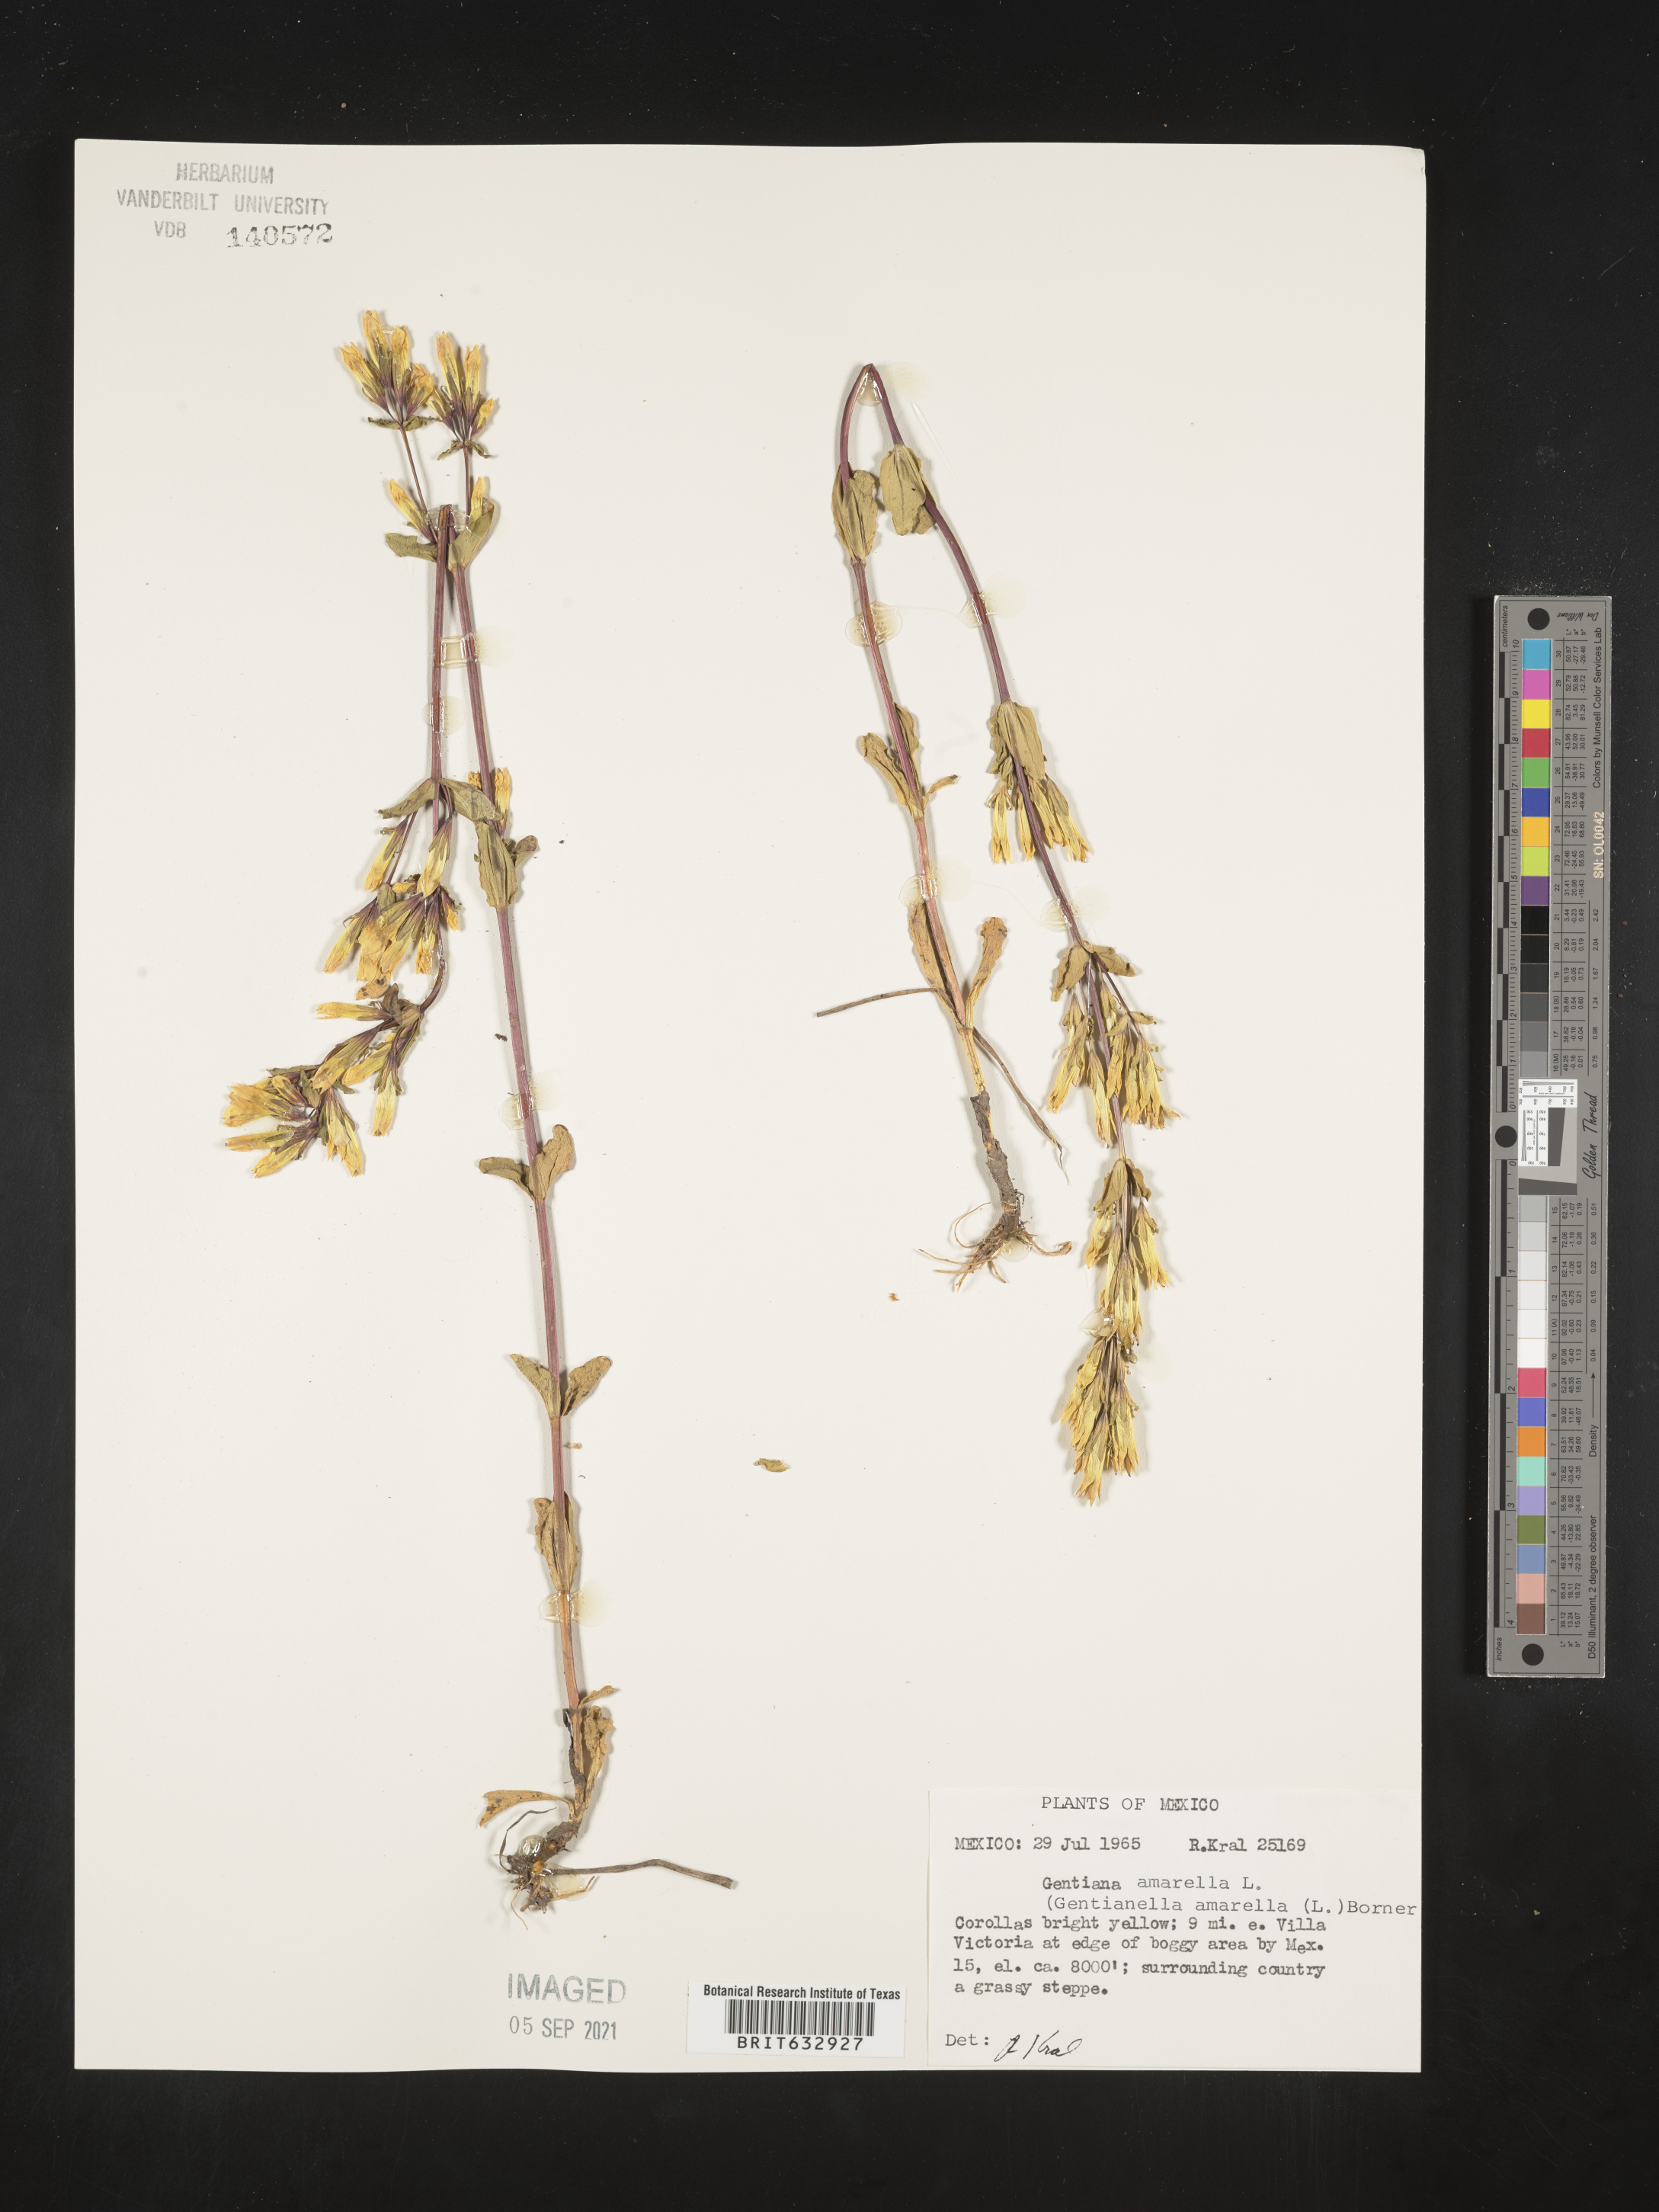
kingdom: Plantae
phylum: Tracheophyta
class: Magnoliopsida
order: Gentianales
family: Gentianaceae
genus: Gentiana
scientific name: Gentiana
